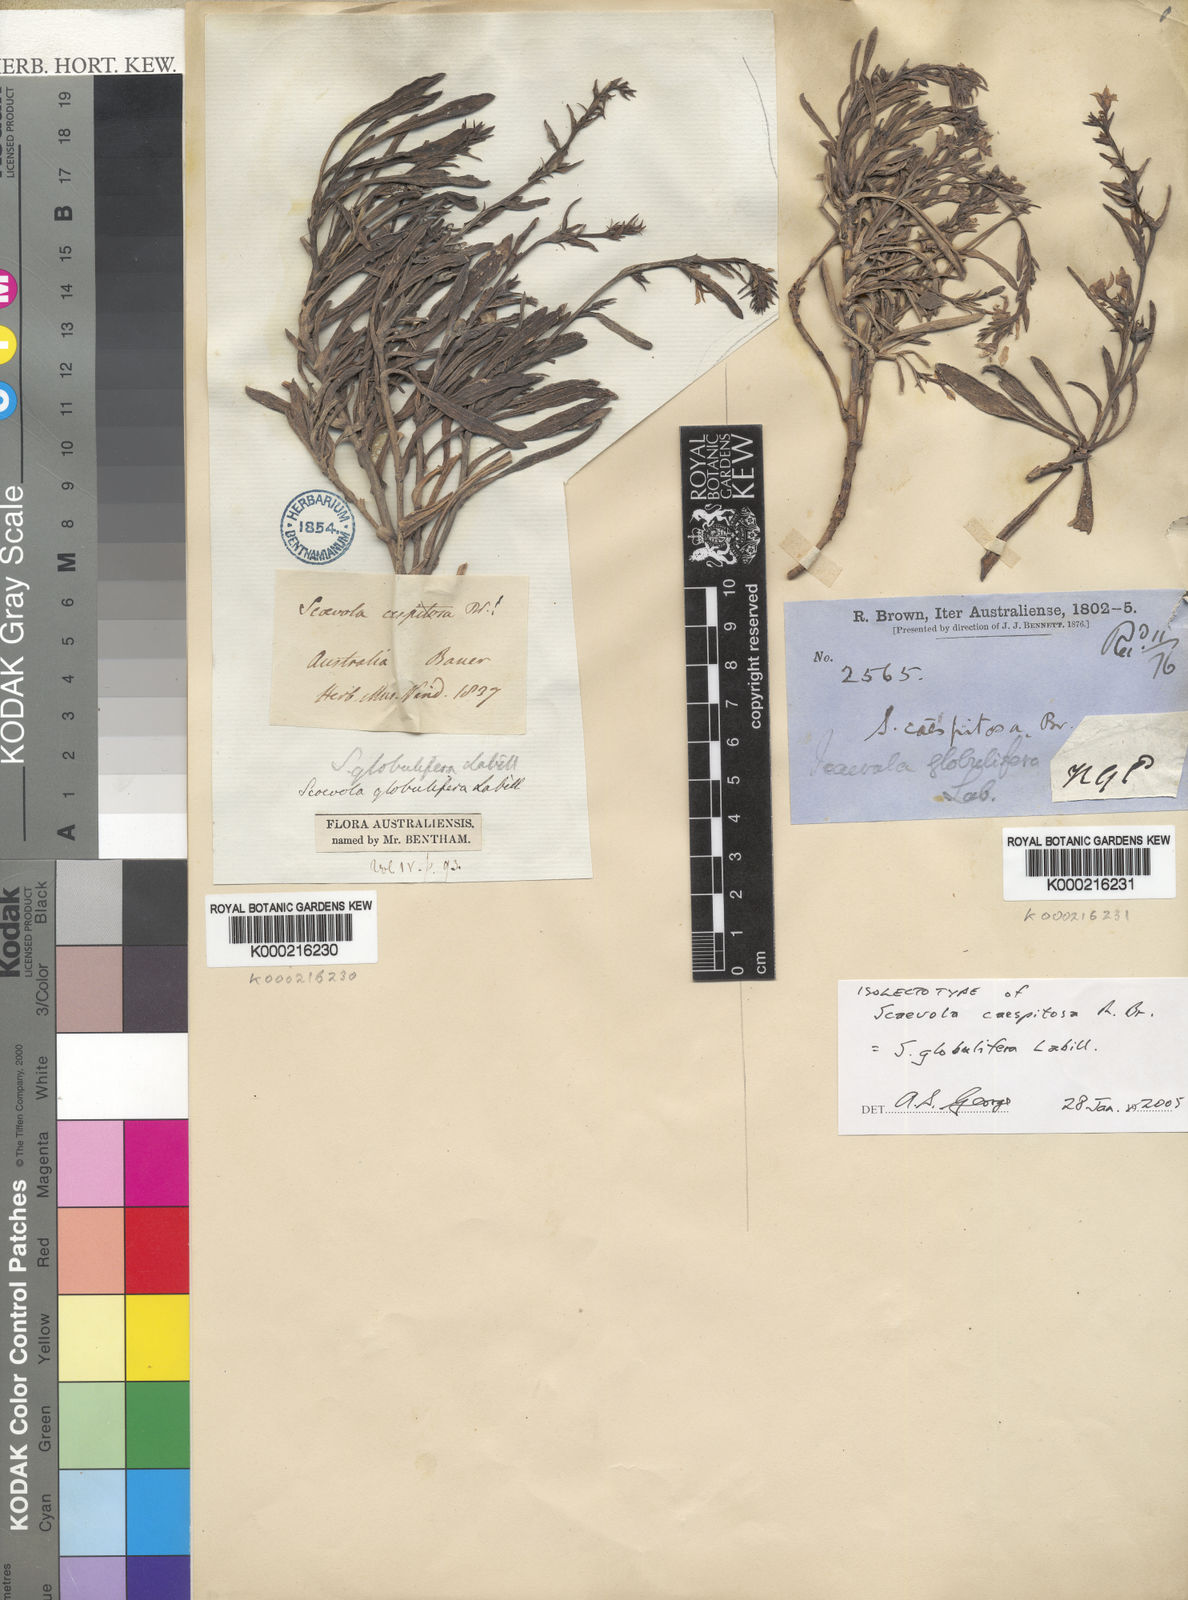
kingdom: Plantae
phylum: Tracheophyta
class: Magnoliopsida
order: Asterales
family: Goodeniaceae
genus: Scaevola
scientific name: Scaevola globulifera
